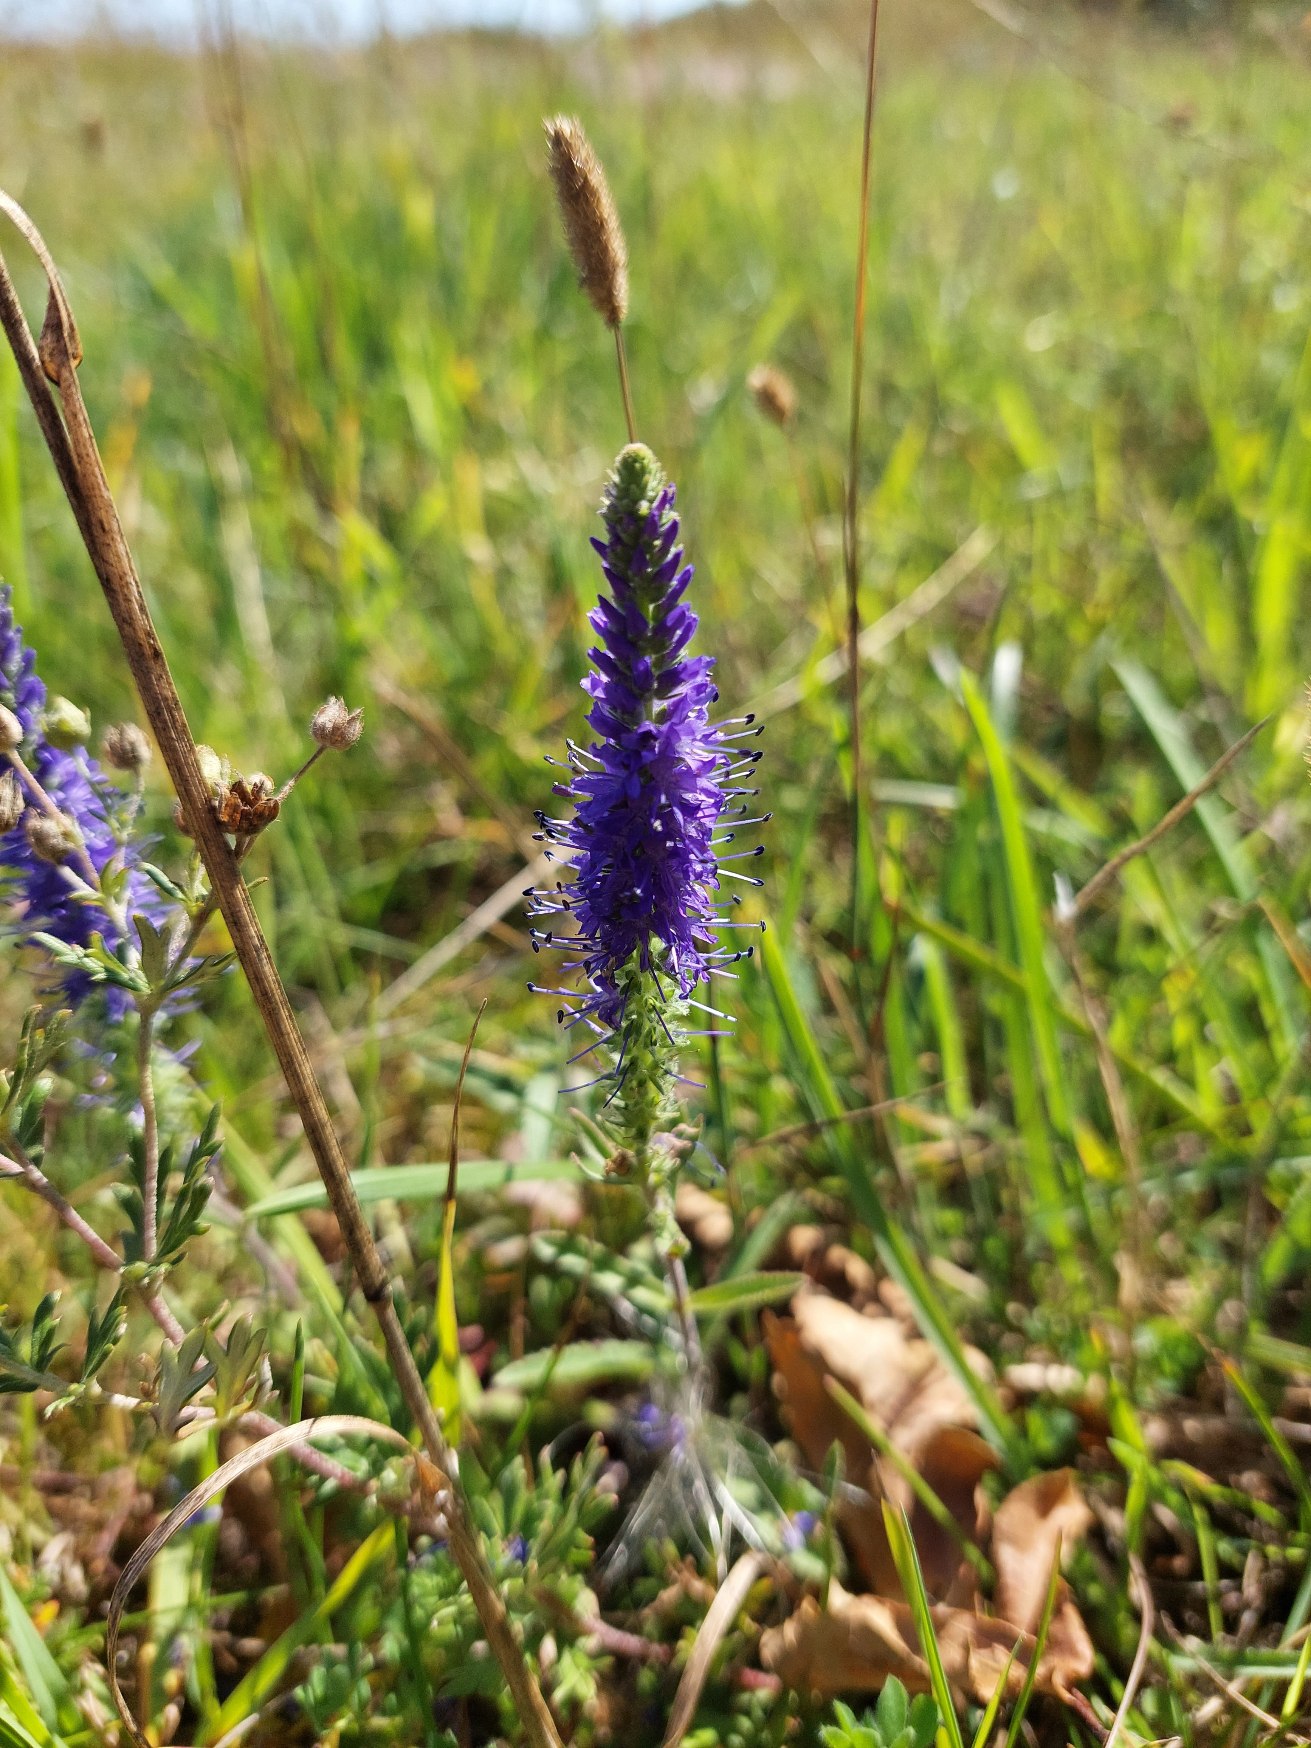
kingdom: Plantae
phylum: Tracheophyta
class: Magnoliopsida
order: Lamiales
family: Plantaginaceae
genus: Veronica
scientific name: Veronica spicata
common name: Aks-ærenpris
